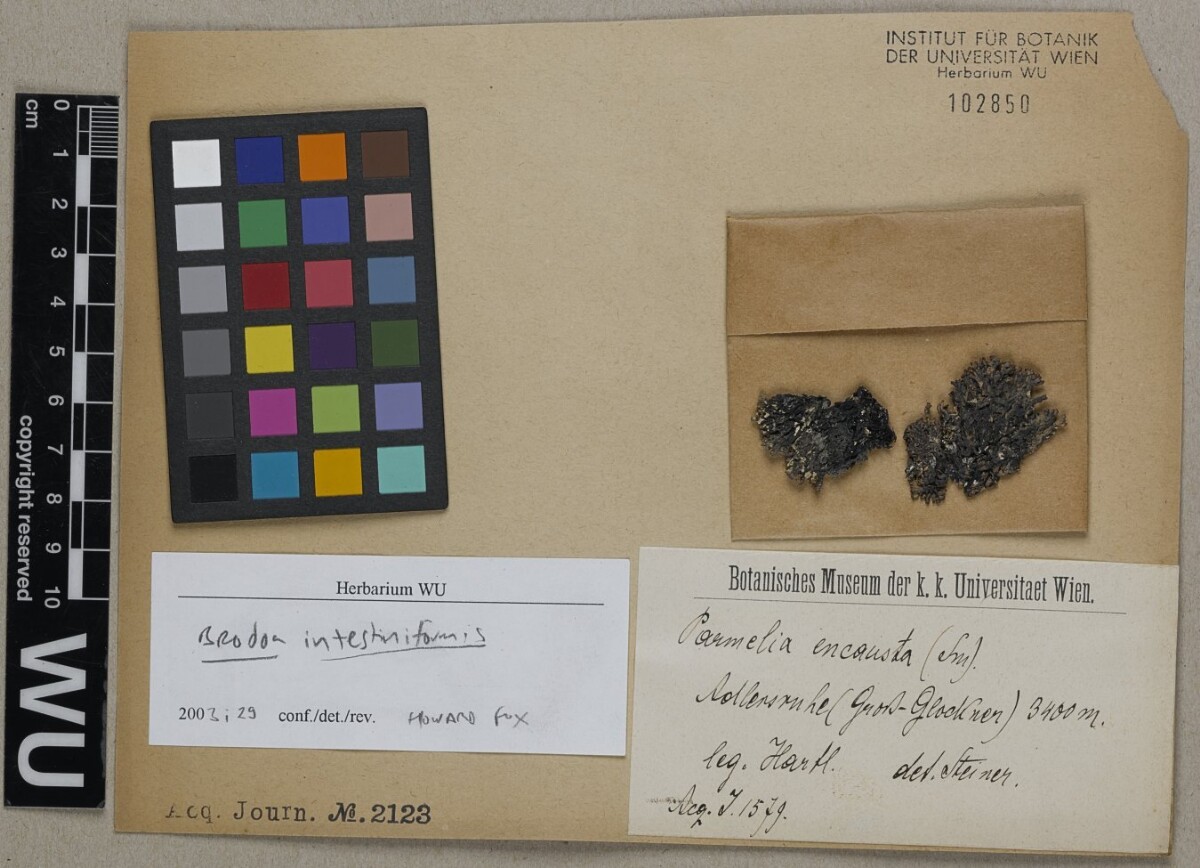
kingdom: Fungi
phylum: Ascomycota
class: Lecanoromycetes
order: Lecanorales
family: Parmeliaceae
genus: Brodoa
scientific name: Brodoa intestiniformis
